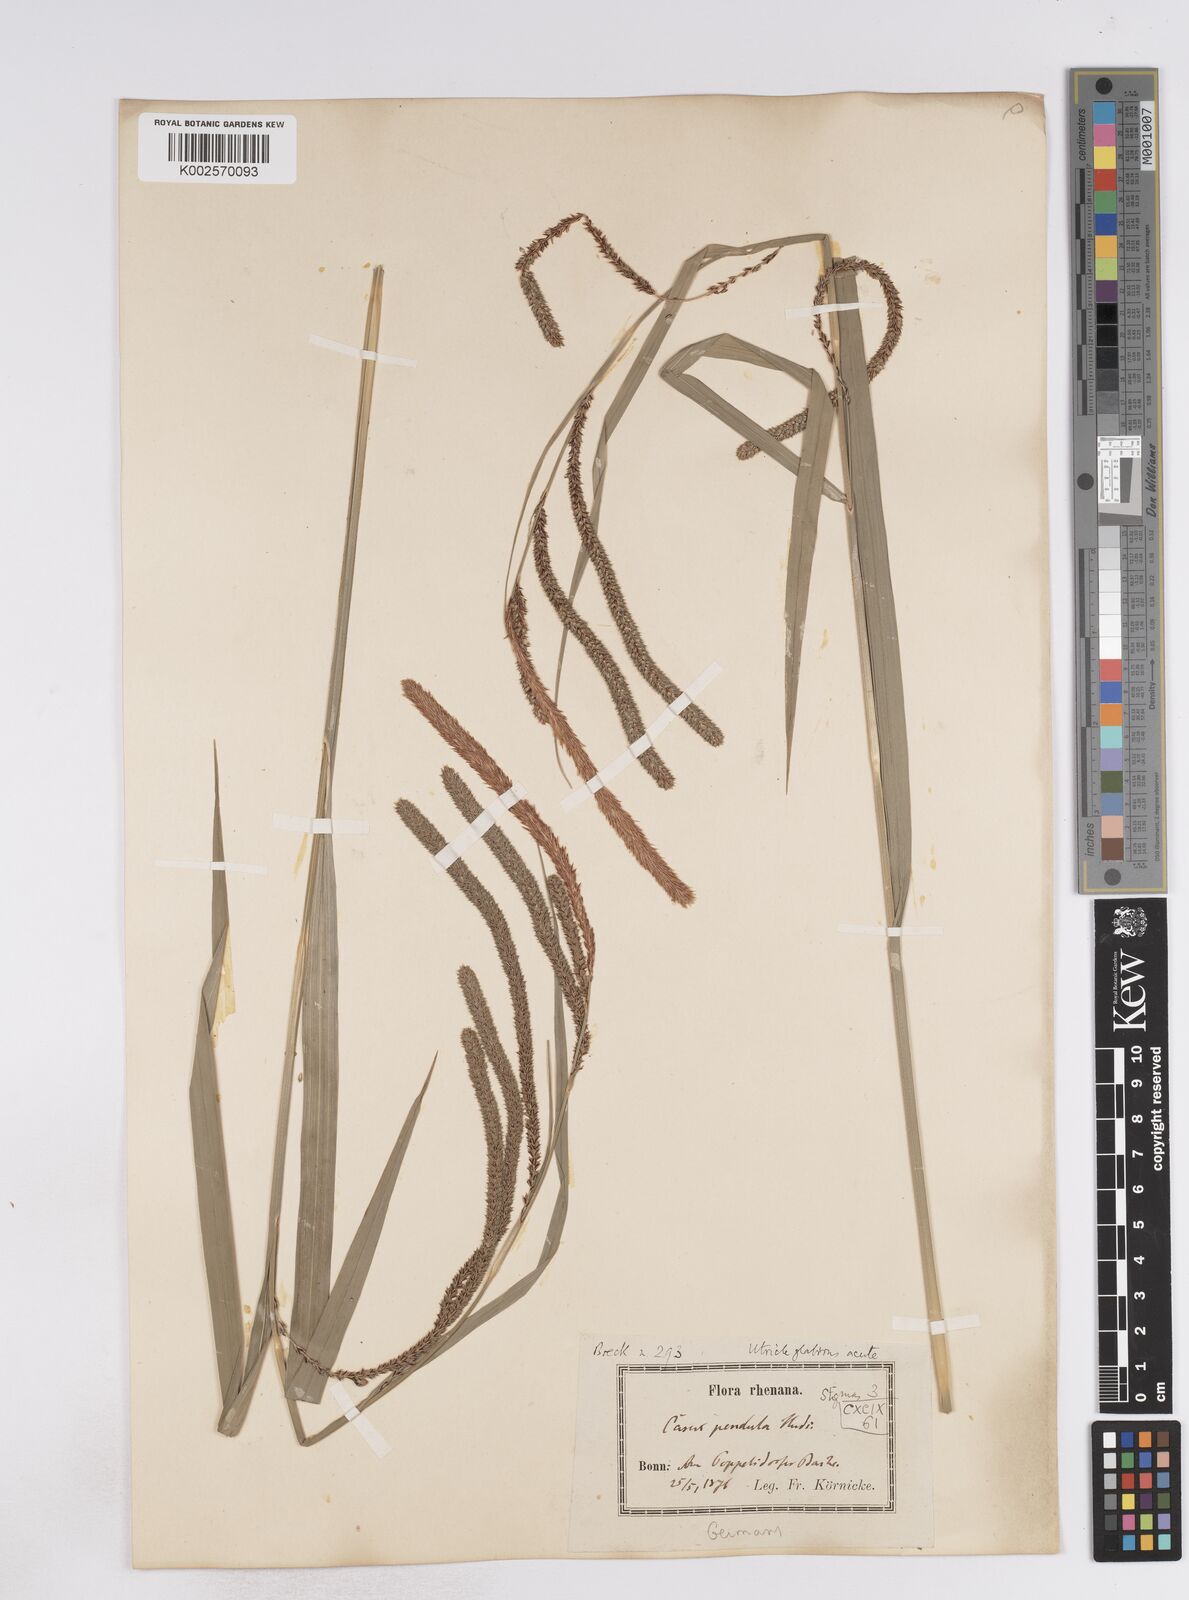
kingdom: Plantae
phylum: Tracheophyta
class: Liliopsida
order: Poales
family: Cyperaceae
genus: Carex
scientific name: Carex pendula
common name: Pendulous sedge
